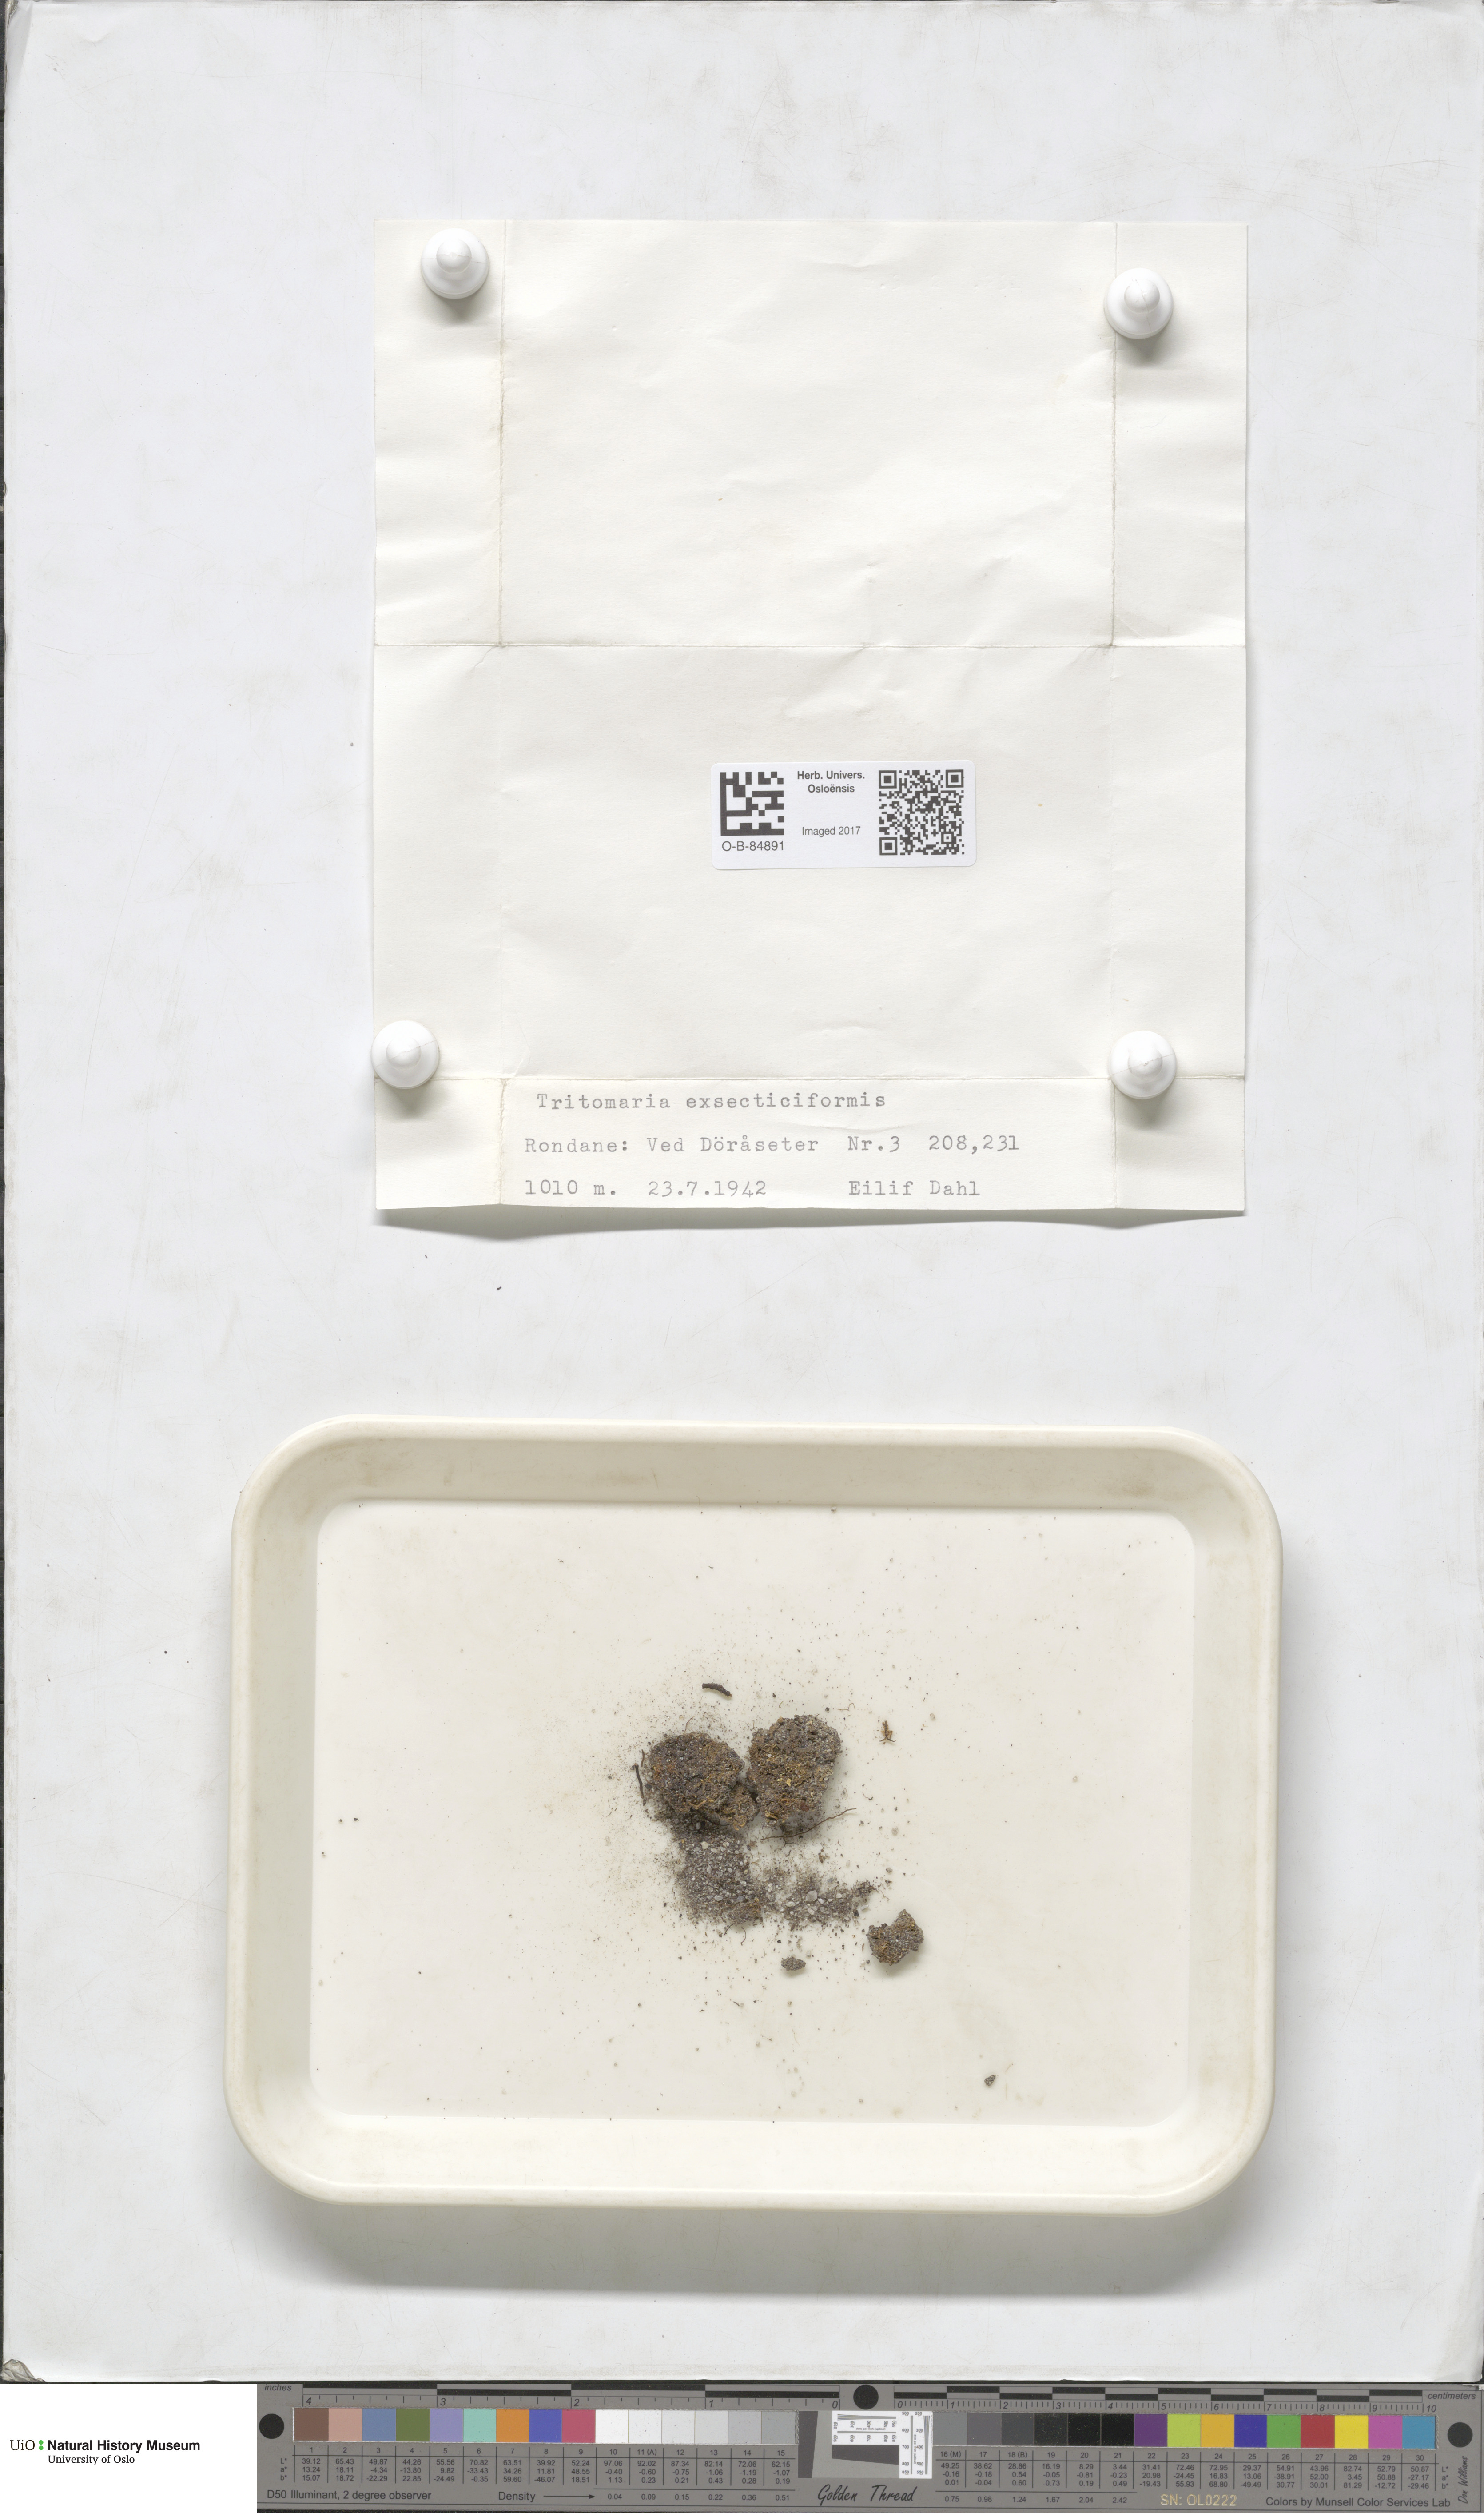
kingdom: Plantae
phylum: Marchantiophyta
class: Jungermanniopsida
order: Jungermanniales
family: Lophoziaceae
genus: Tritomaria
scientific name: Tritomaria exsectiformis
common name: Large cut notchwort
